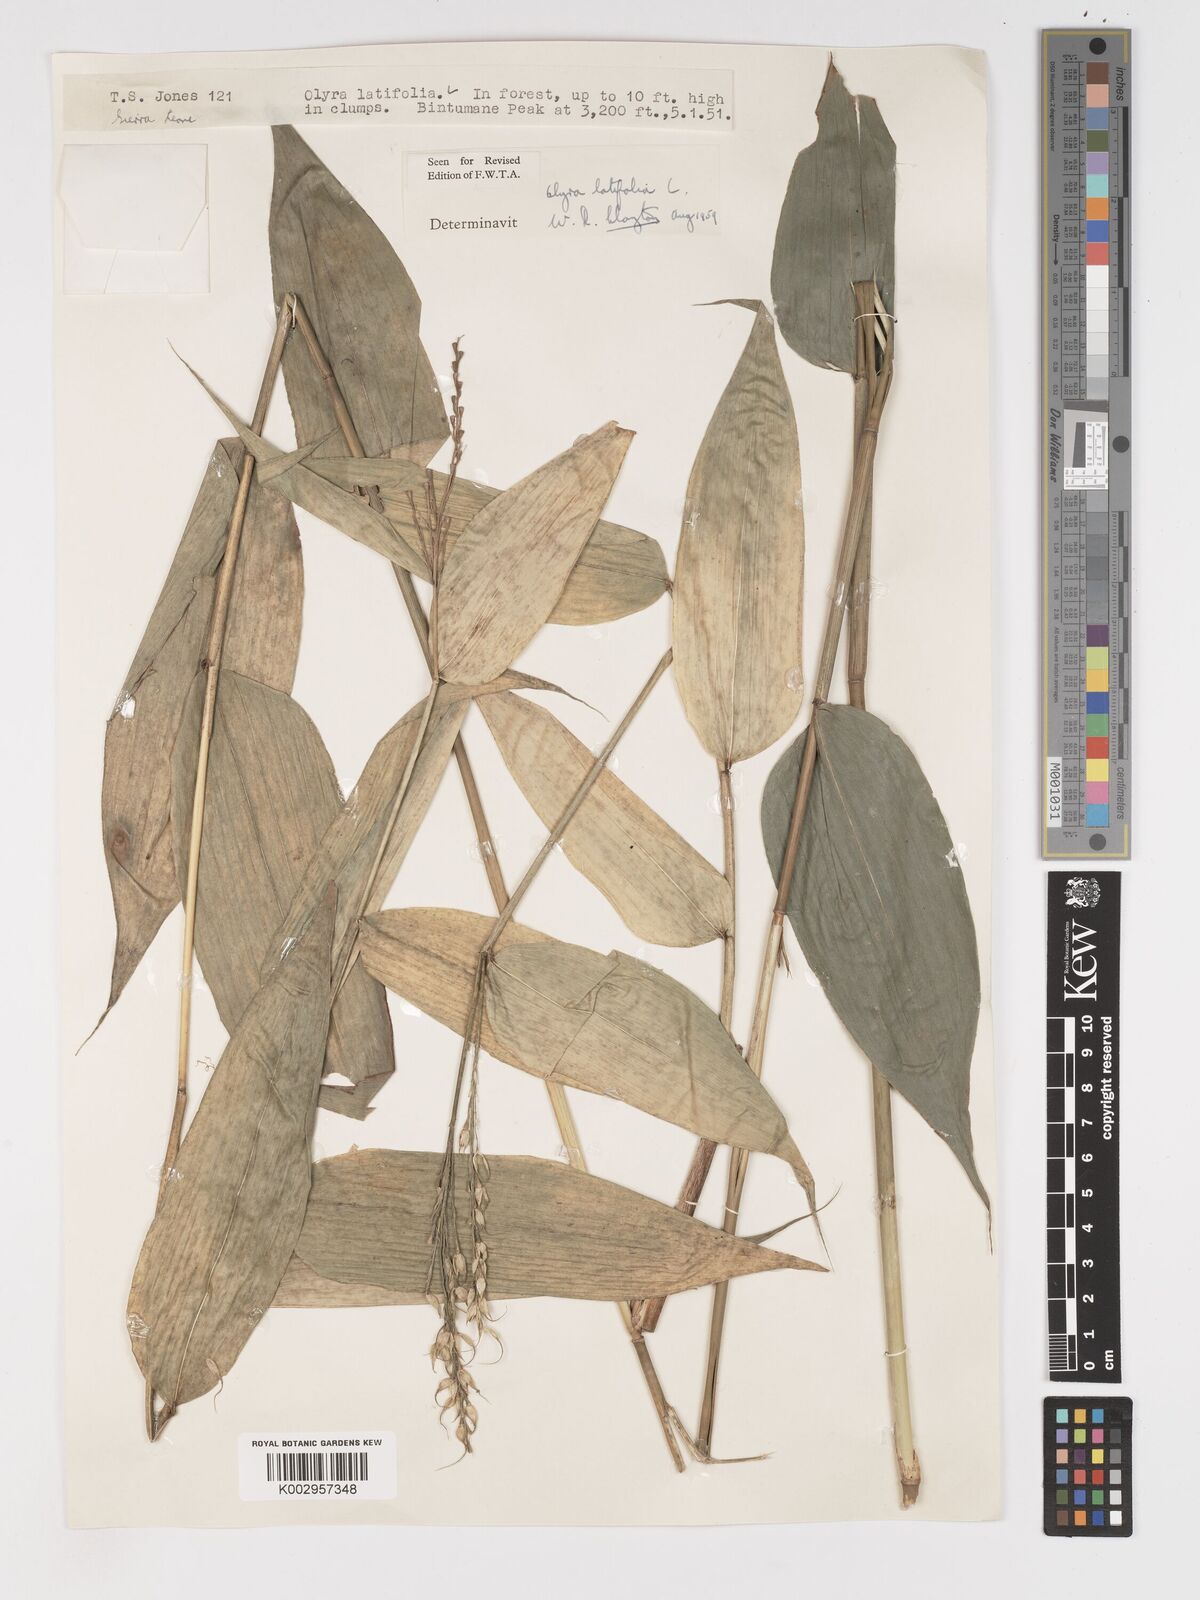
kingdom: Plantae
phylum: Tracheophyta
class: Liliopsida
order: Poales
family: Poaceae
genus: Olyra
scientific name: Olyra latifolia
